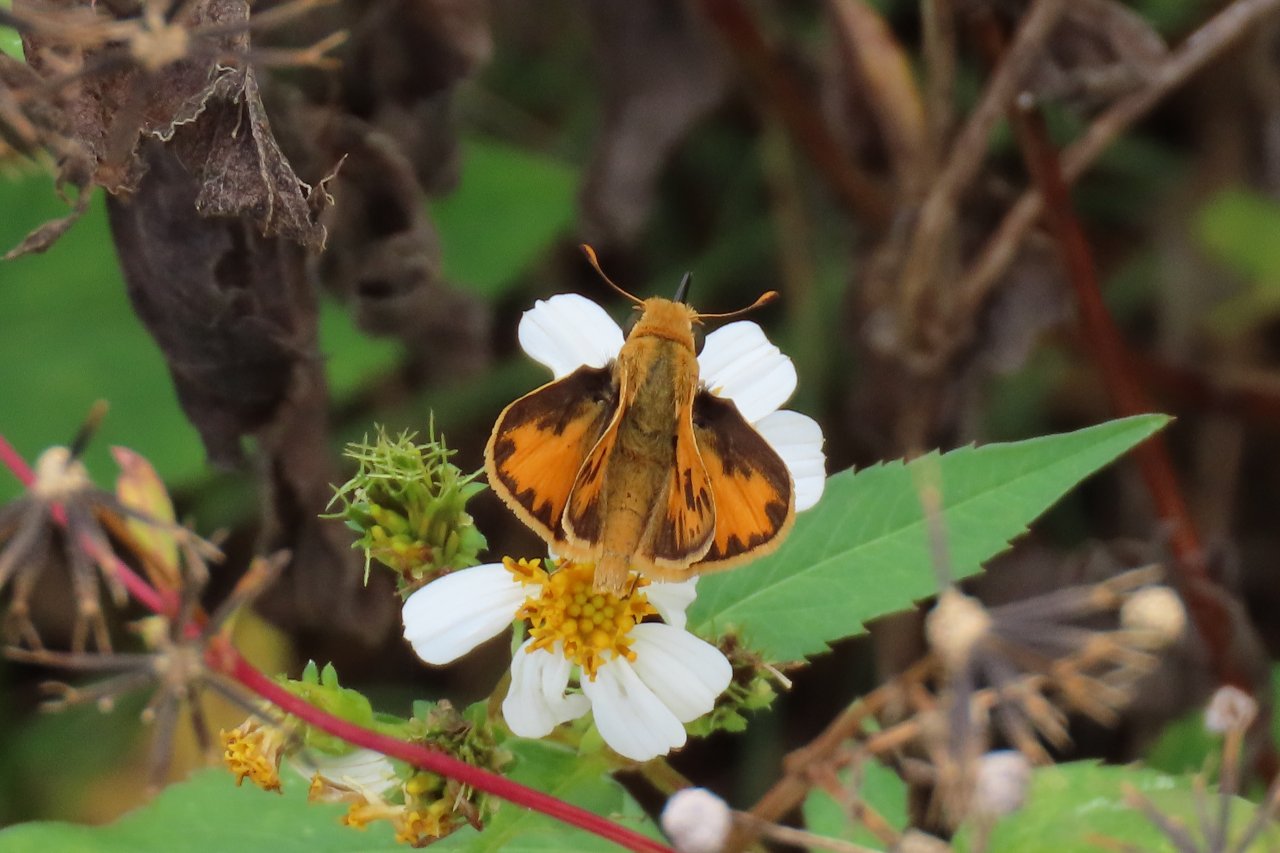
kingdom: Animalia
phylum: Arthropoda
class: Insecta
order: Lepidoptera
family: Hesperiidae
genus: Hylephila
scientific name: Hylephila phyleus
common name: Fiery Skipper
